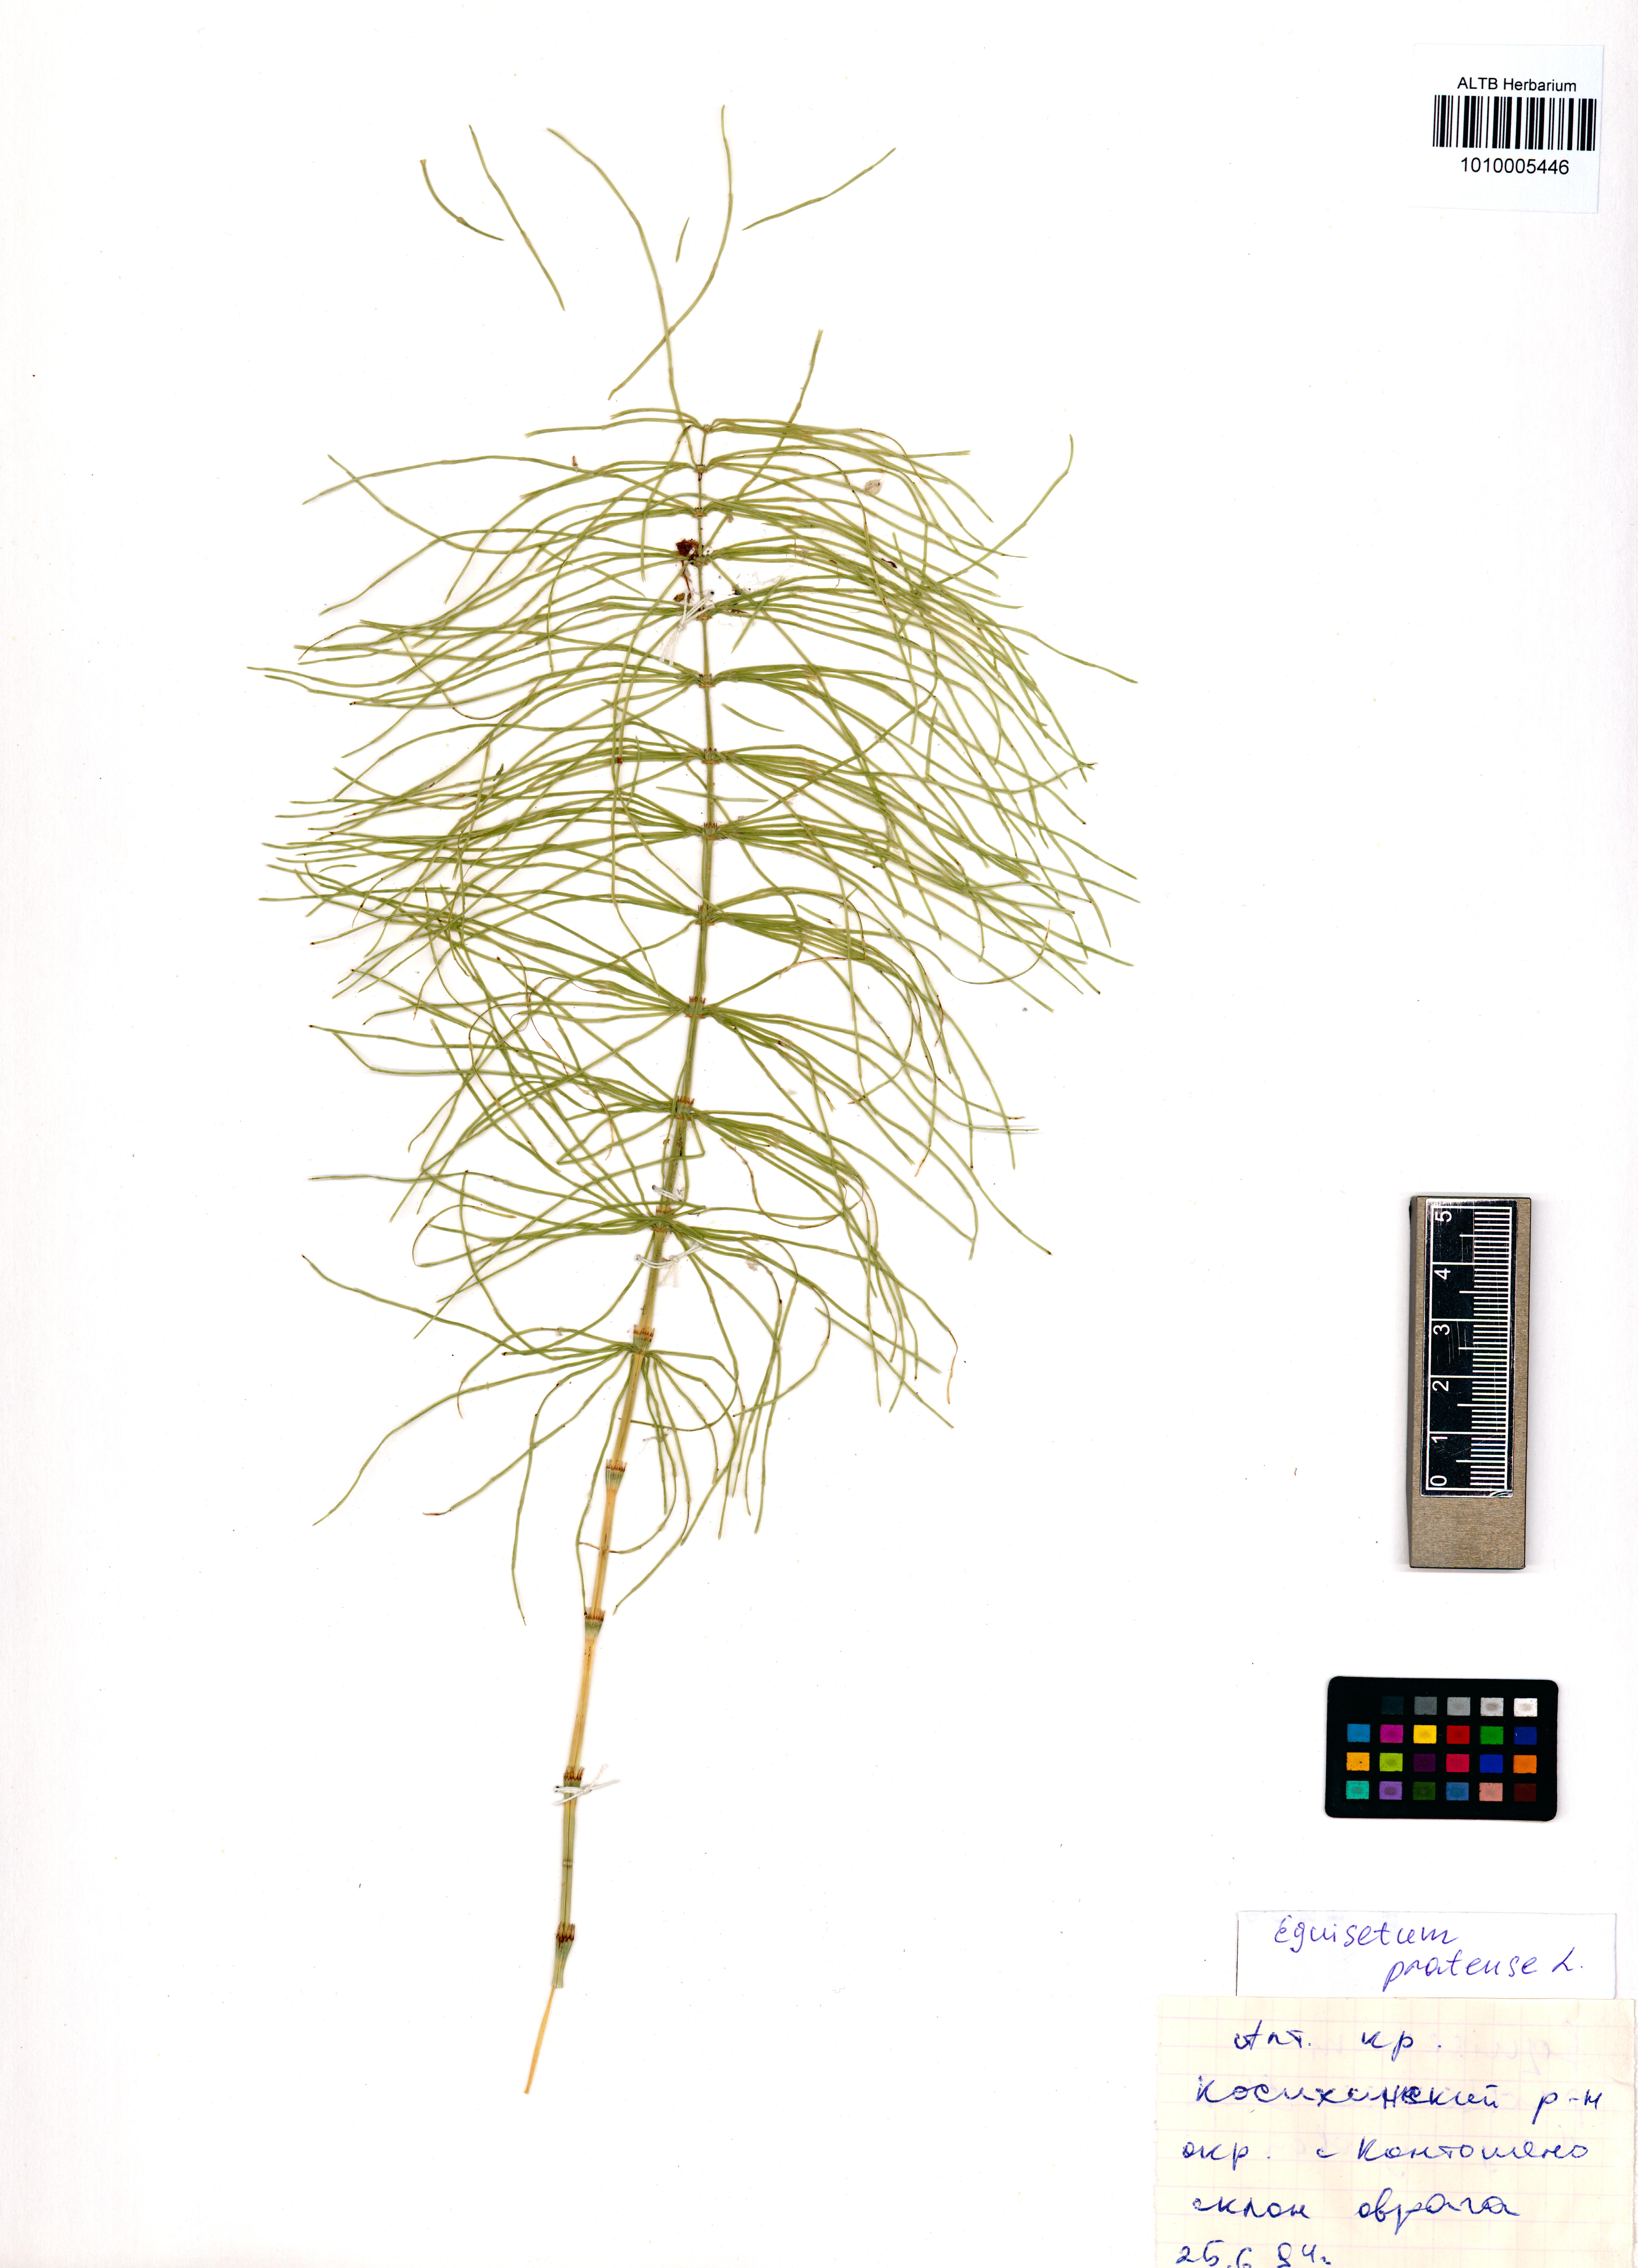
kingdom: Plantae
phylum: Tracheophyta
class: Polypodiopsida
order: Equisetales
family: Equisetaceae
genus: Equisetum
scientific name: Equisetum pratense
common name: Meadow horsetail
